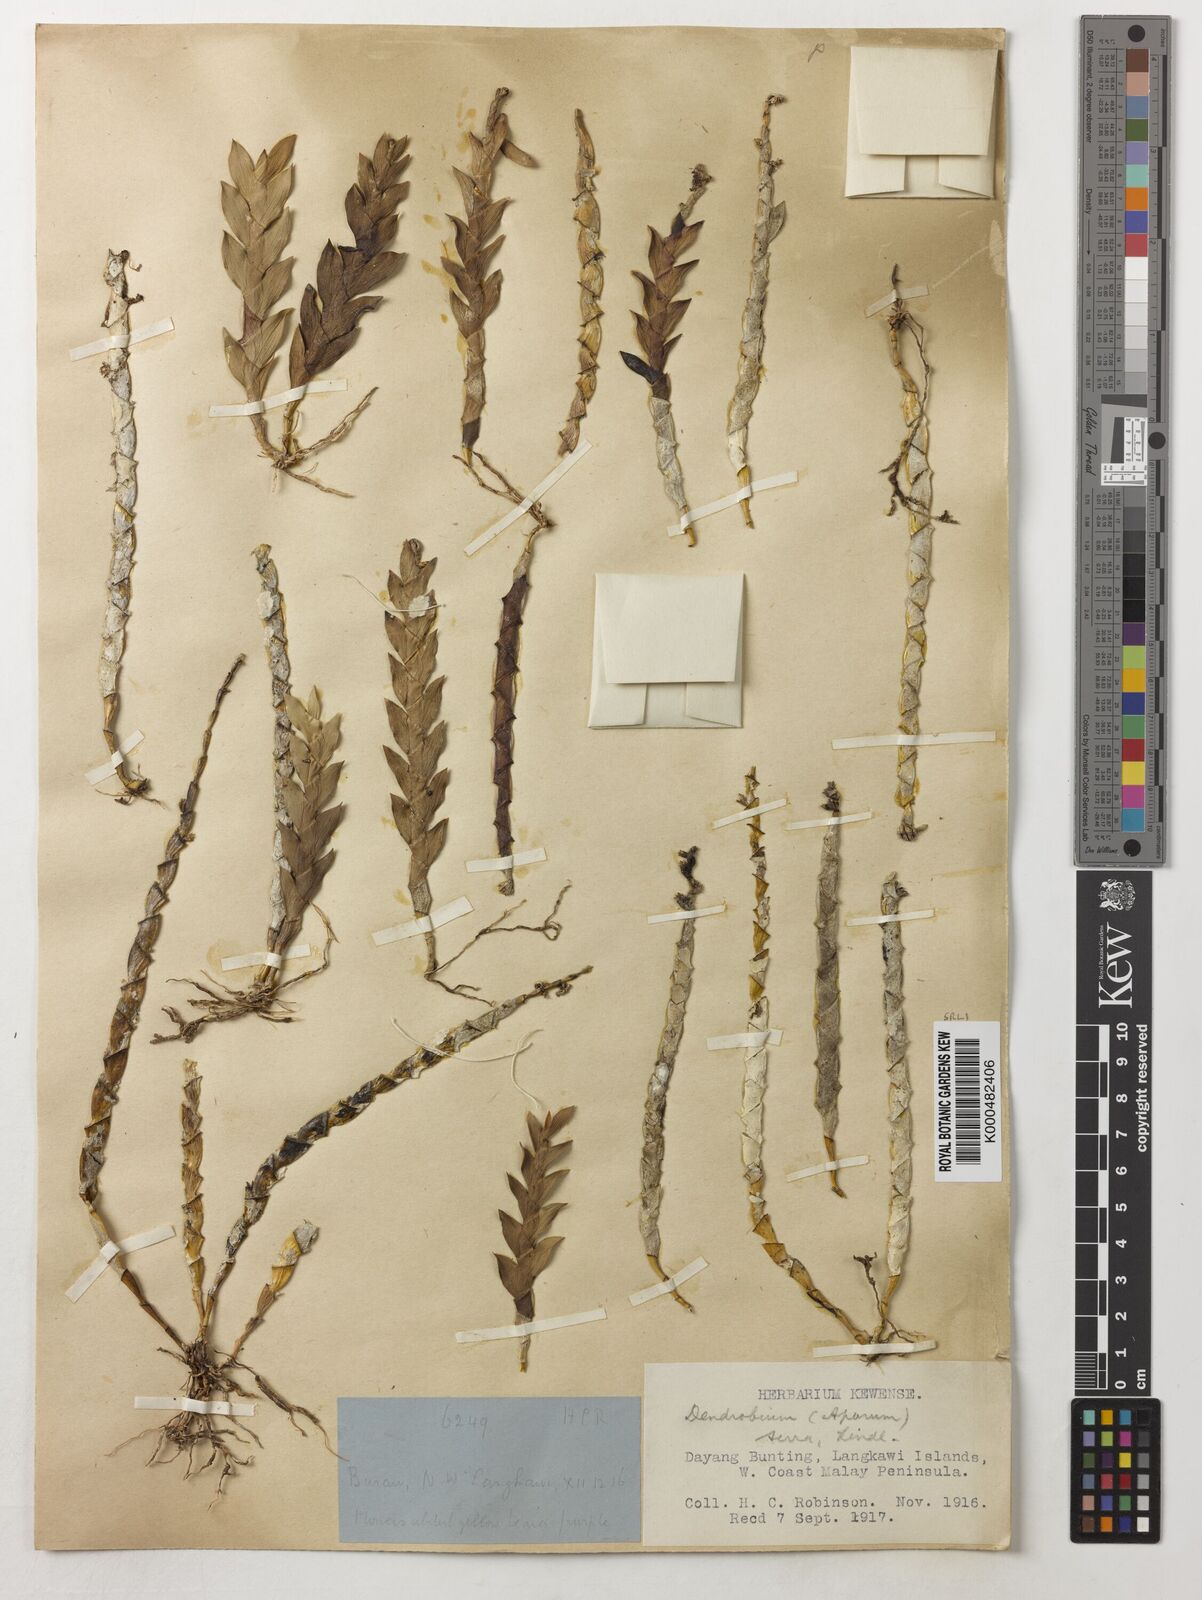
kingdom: Plantae
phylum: Tracheophyta
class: Liliopsida
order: Asparagales
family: Orchidaceae
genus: Dendrobium
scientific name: Dendrobium aloifolium
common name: Aloe-like dendrobium
